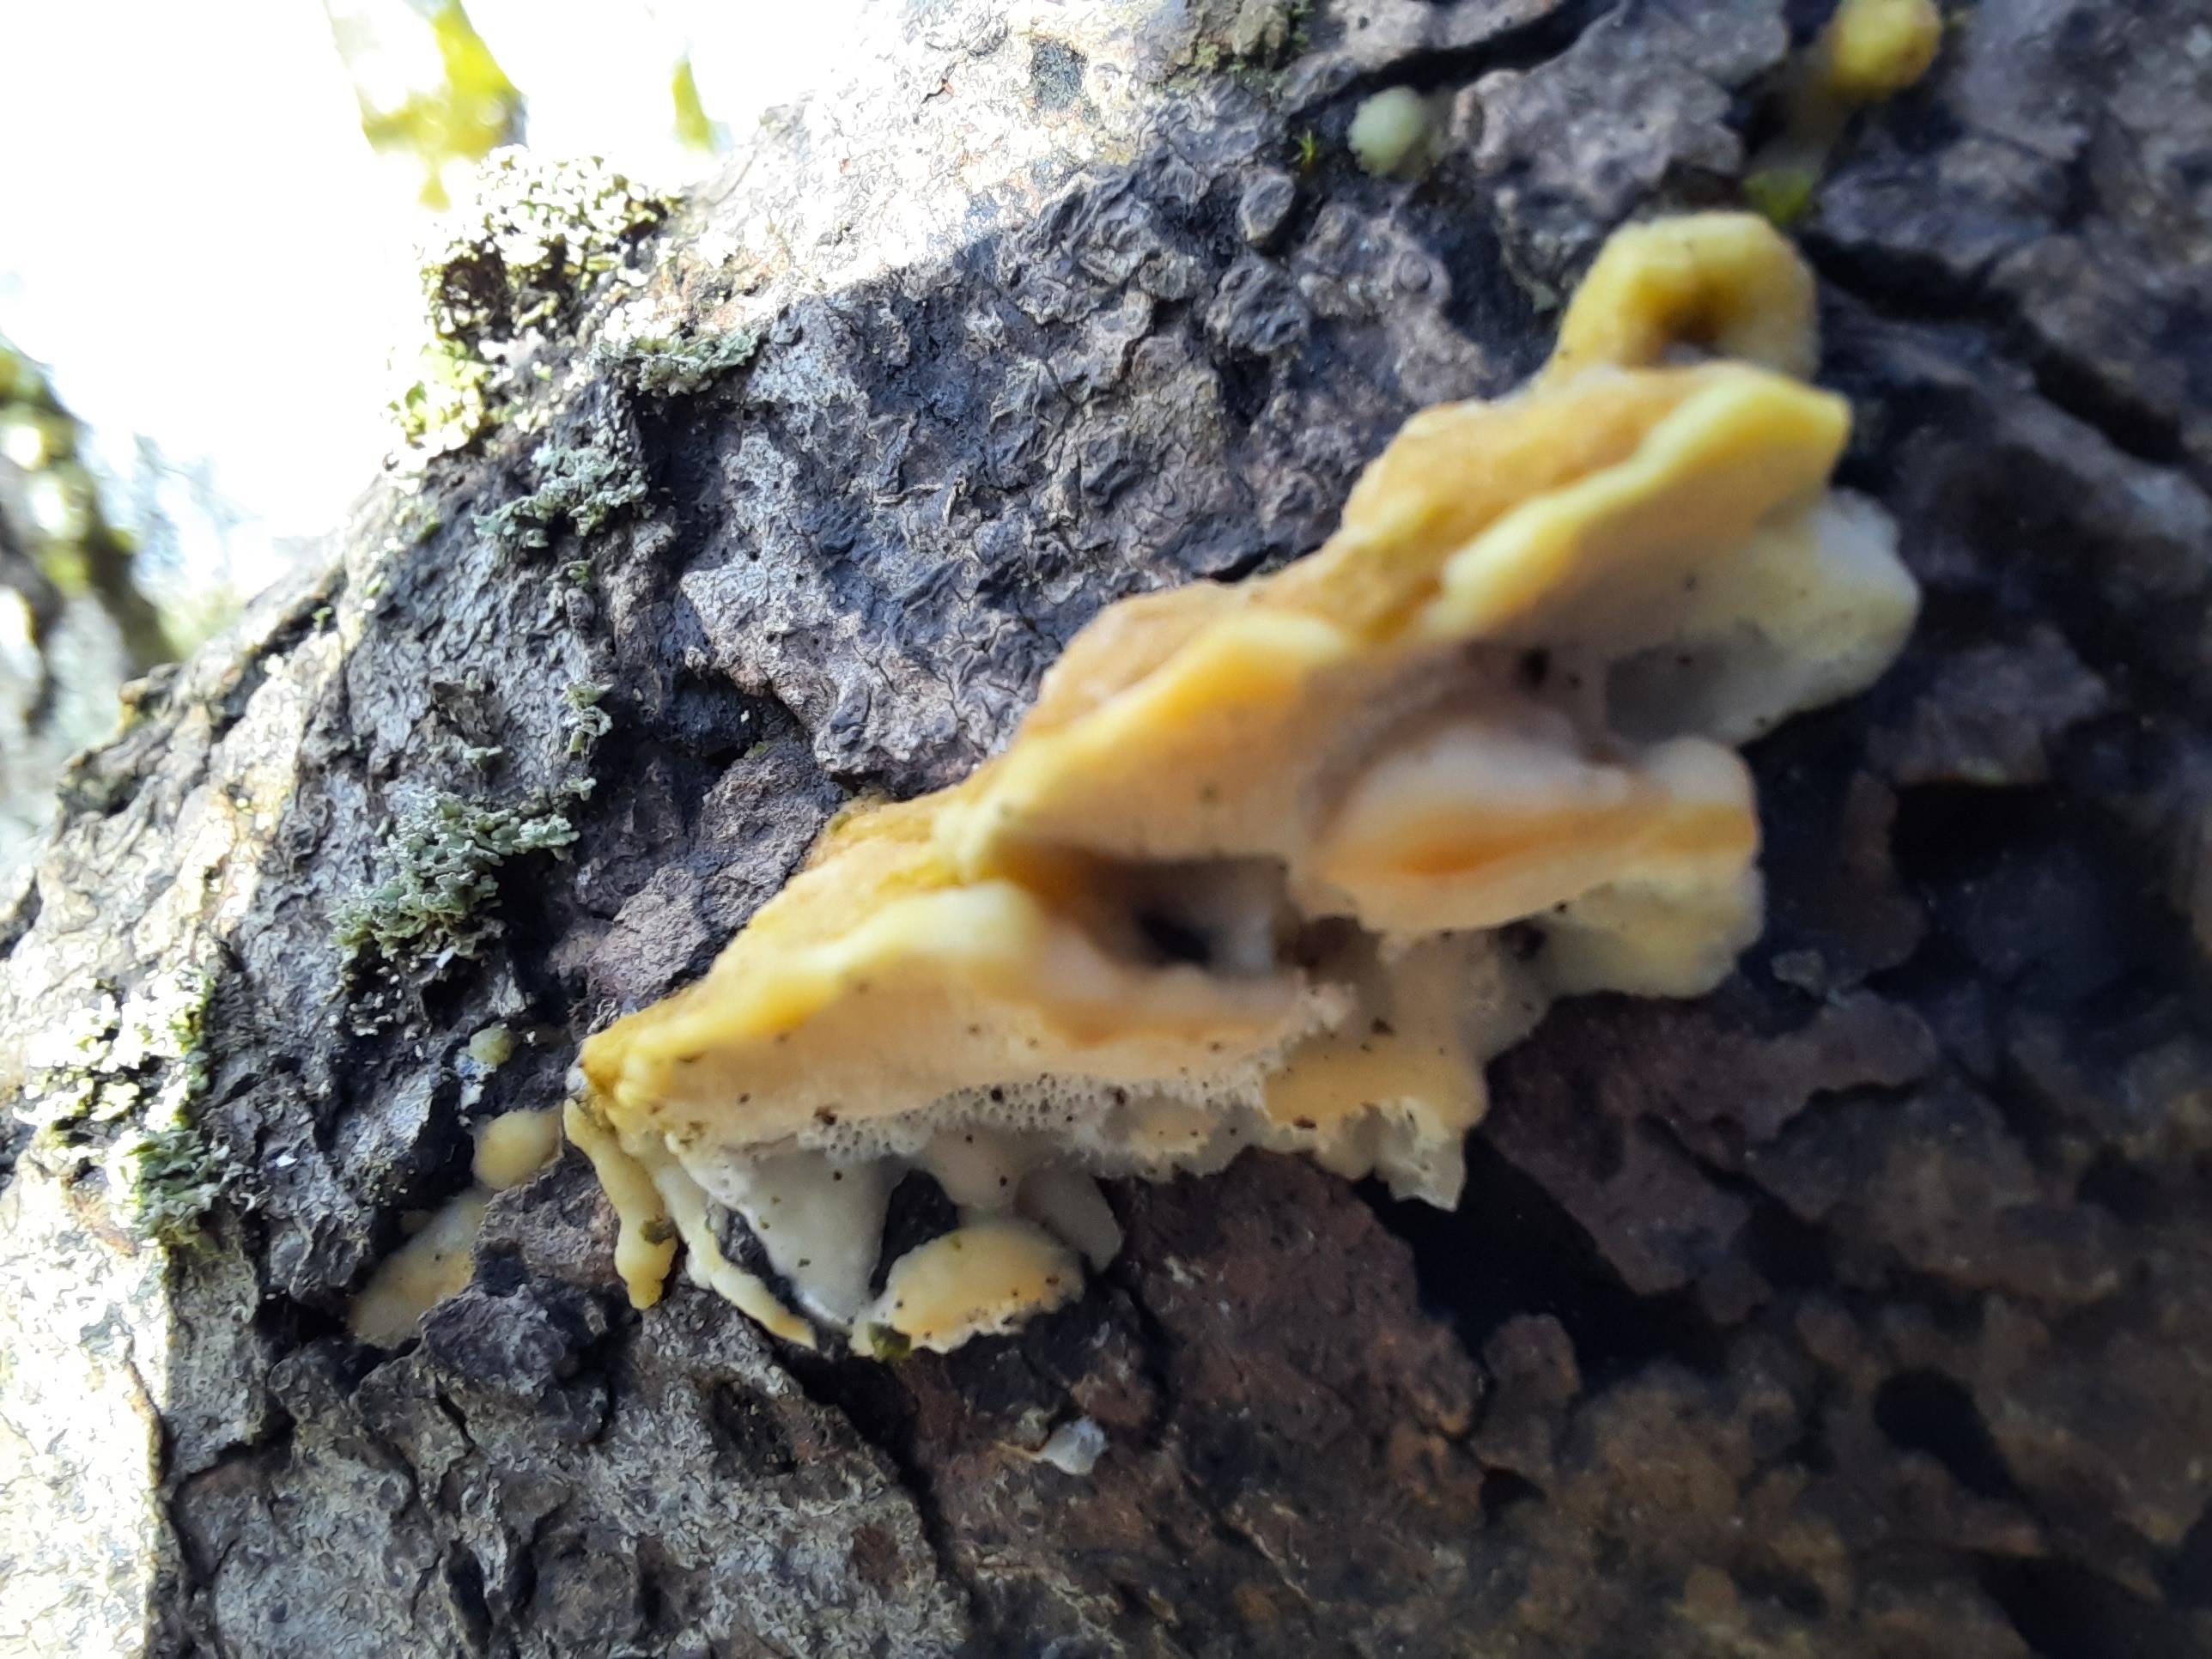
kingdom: Fungi
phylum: Basidiomycota
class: Agaricomycetes
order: Polyporales
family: Polyporaceae
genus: Trametes
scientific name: Trametes ochracea
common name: bæltet læderporesvamp
